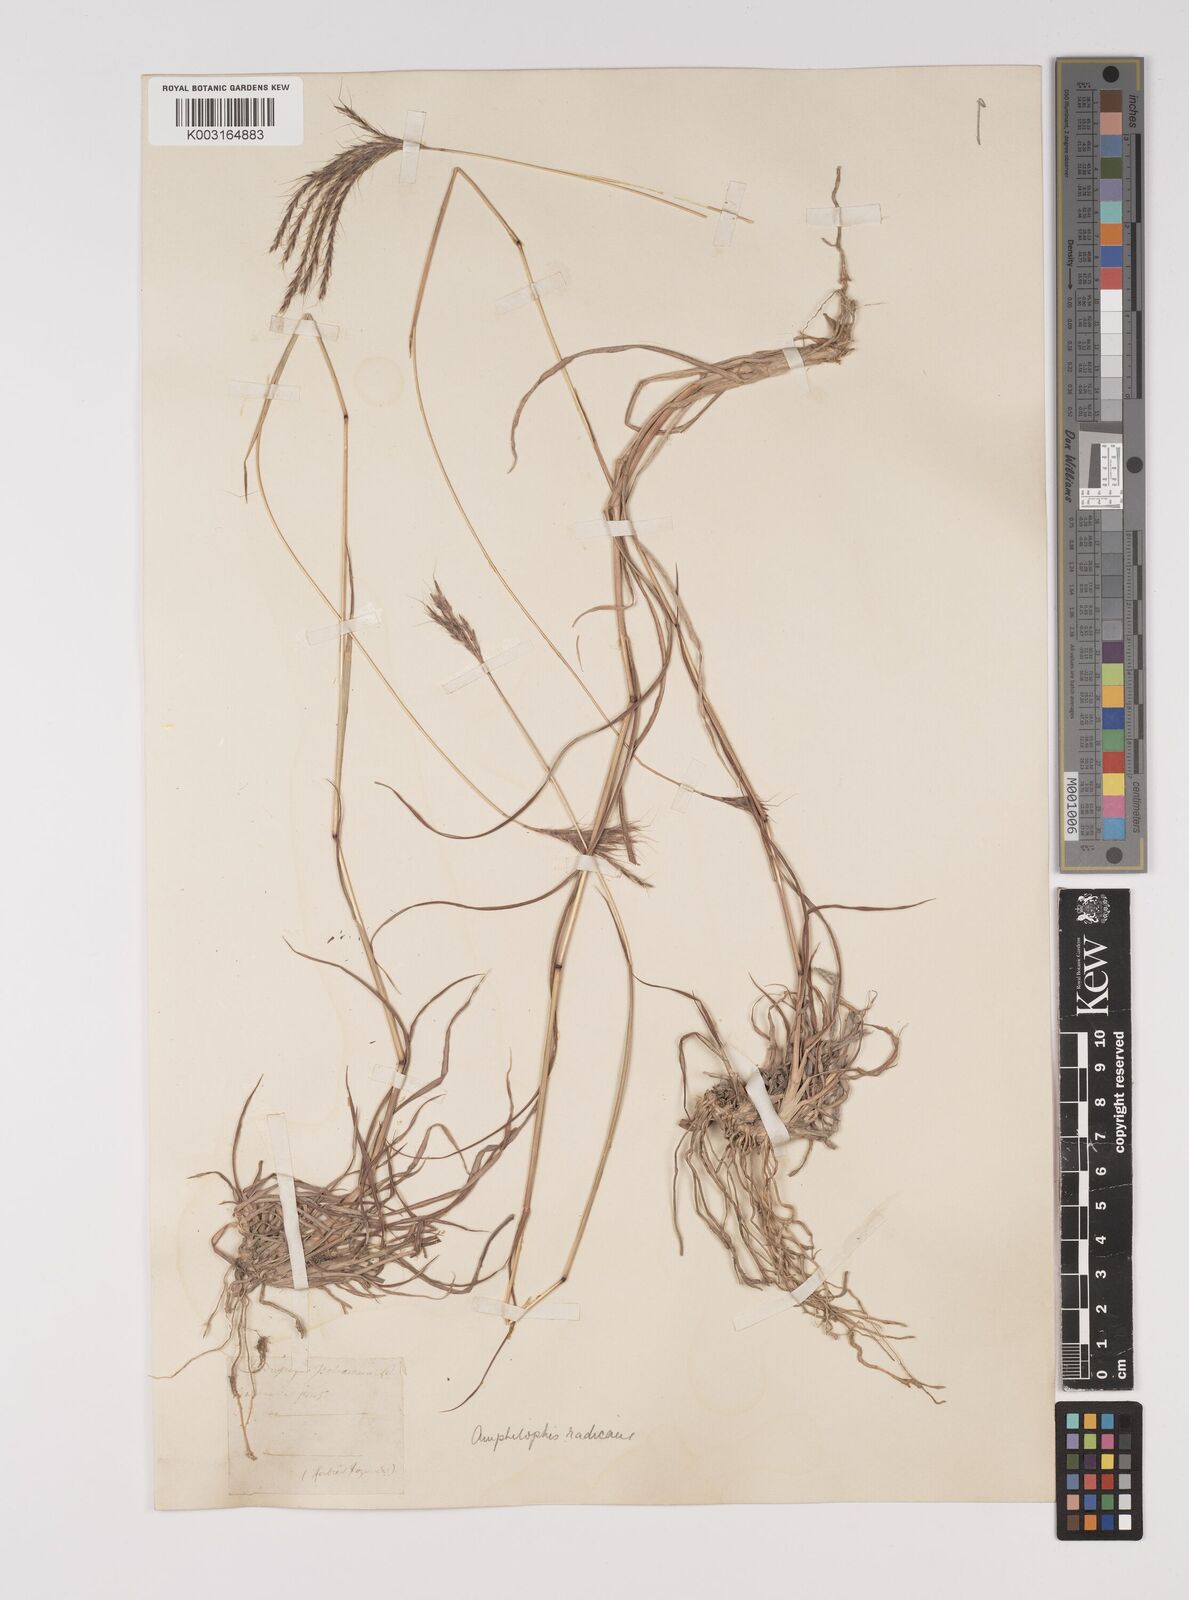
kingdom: Plantae
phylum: Tracheophyta
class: Liliopsida
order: Poales
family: Poaceae
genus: Bothriochloa
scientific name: Bothriochloa ischaemum
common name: Yellow bluestem
